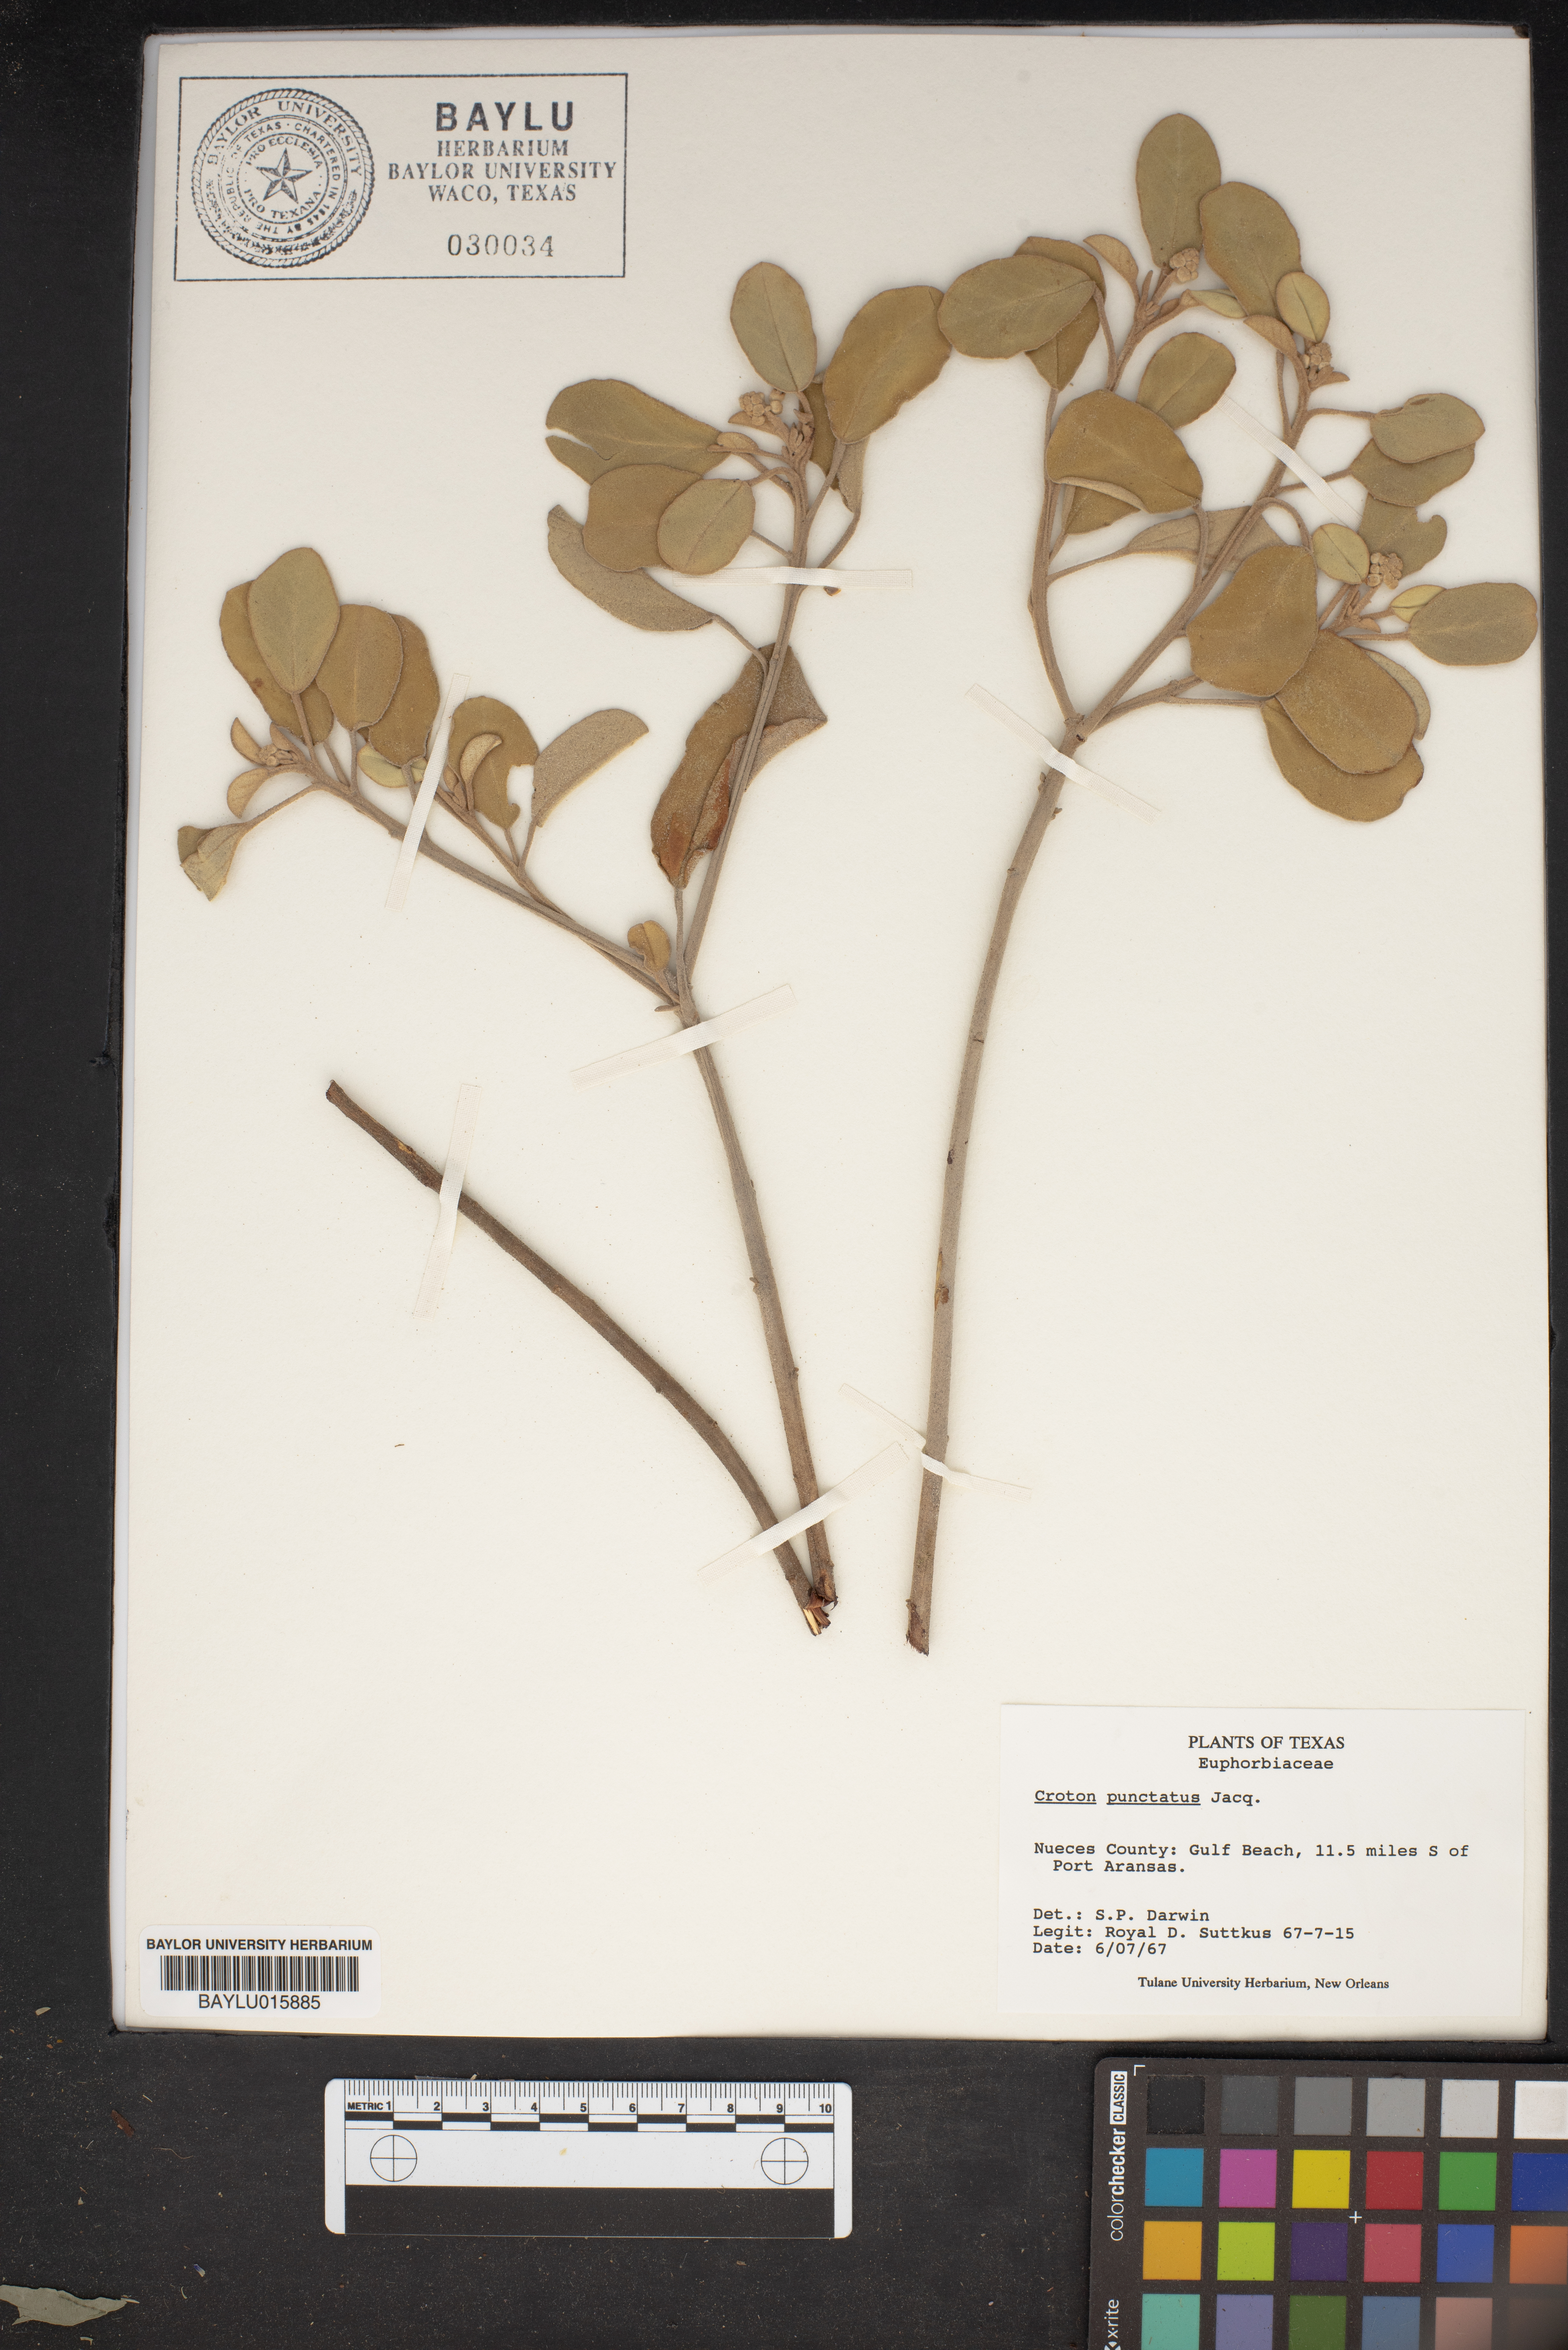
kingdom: Plantae
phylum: Tracheophyta
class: Magnoliopsida
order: Malpighiales
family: Euphorbiaceae
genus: Croton
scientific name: Croton punctatus
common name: Beach-tea
